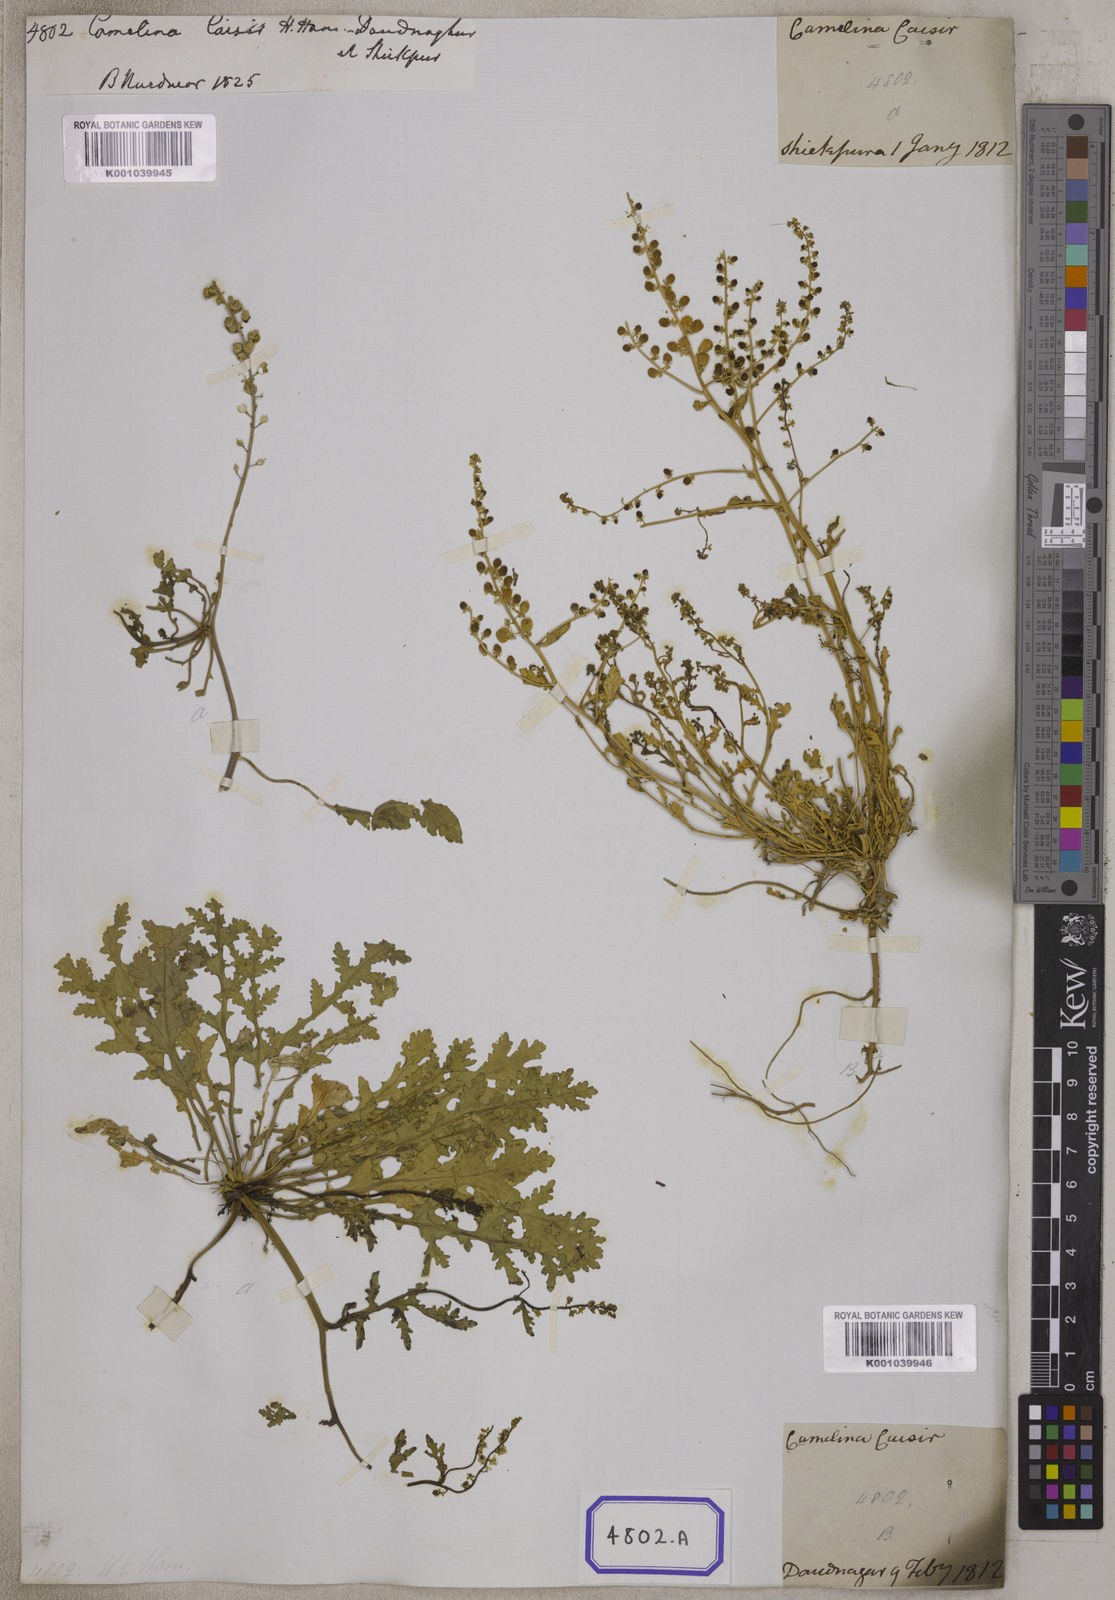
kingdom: Plantae
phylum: Tracheophyta
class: Magnoliopsida
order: Brassicales
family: Brassicaceae
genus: Rorippa
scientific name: Rorippa cochlearioides
